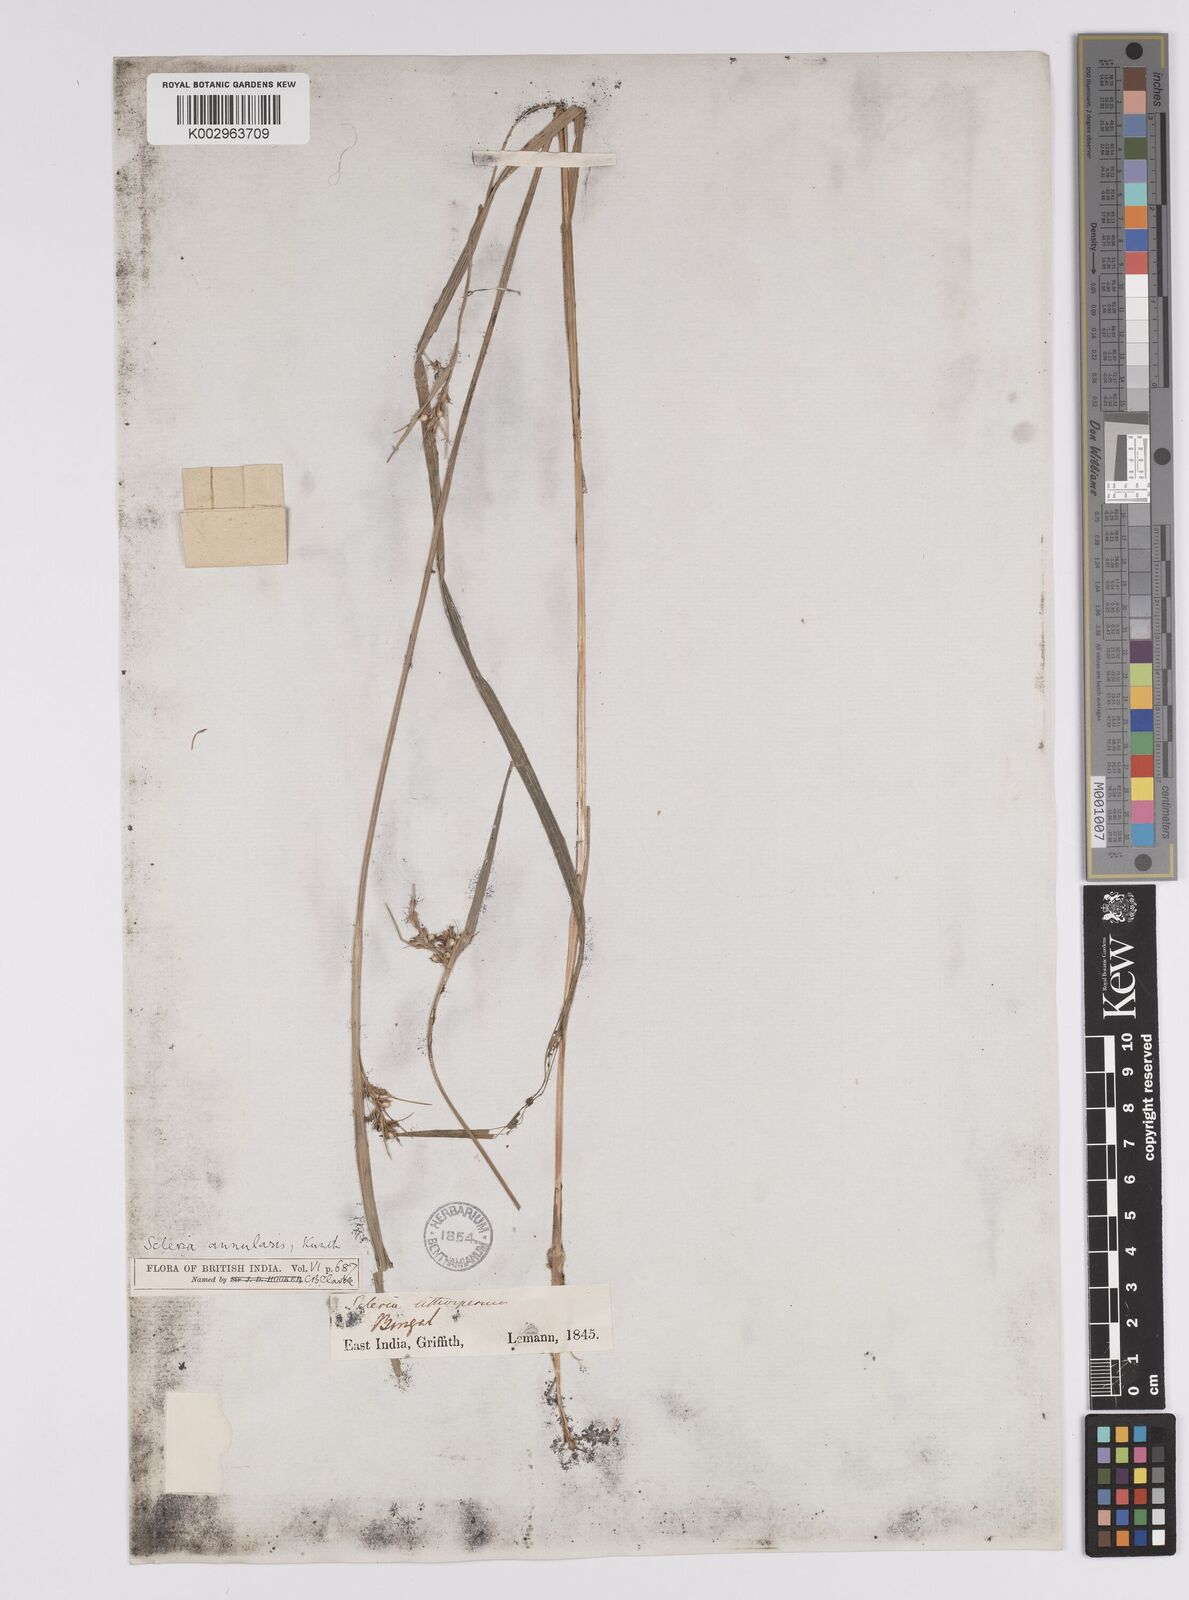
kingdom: Plantae
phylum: Tracheophyta
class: Liliopsida
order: Poales
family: Cyperaceae
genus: Scleria
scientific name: Scleria annularis
